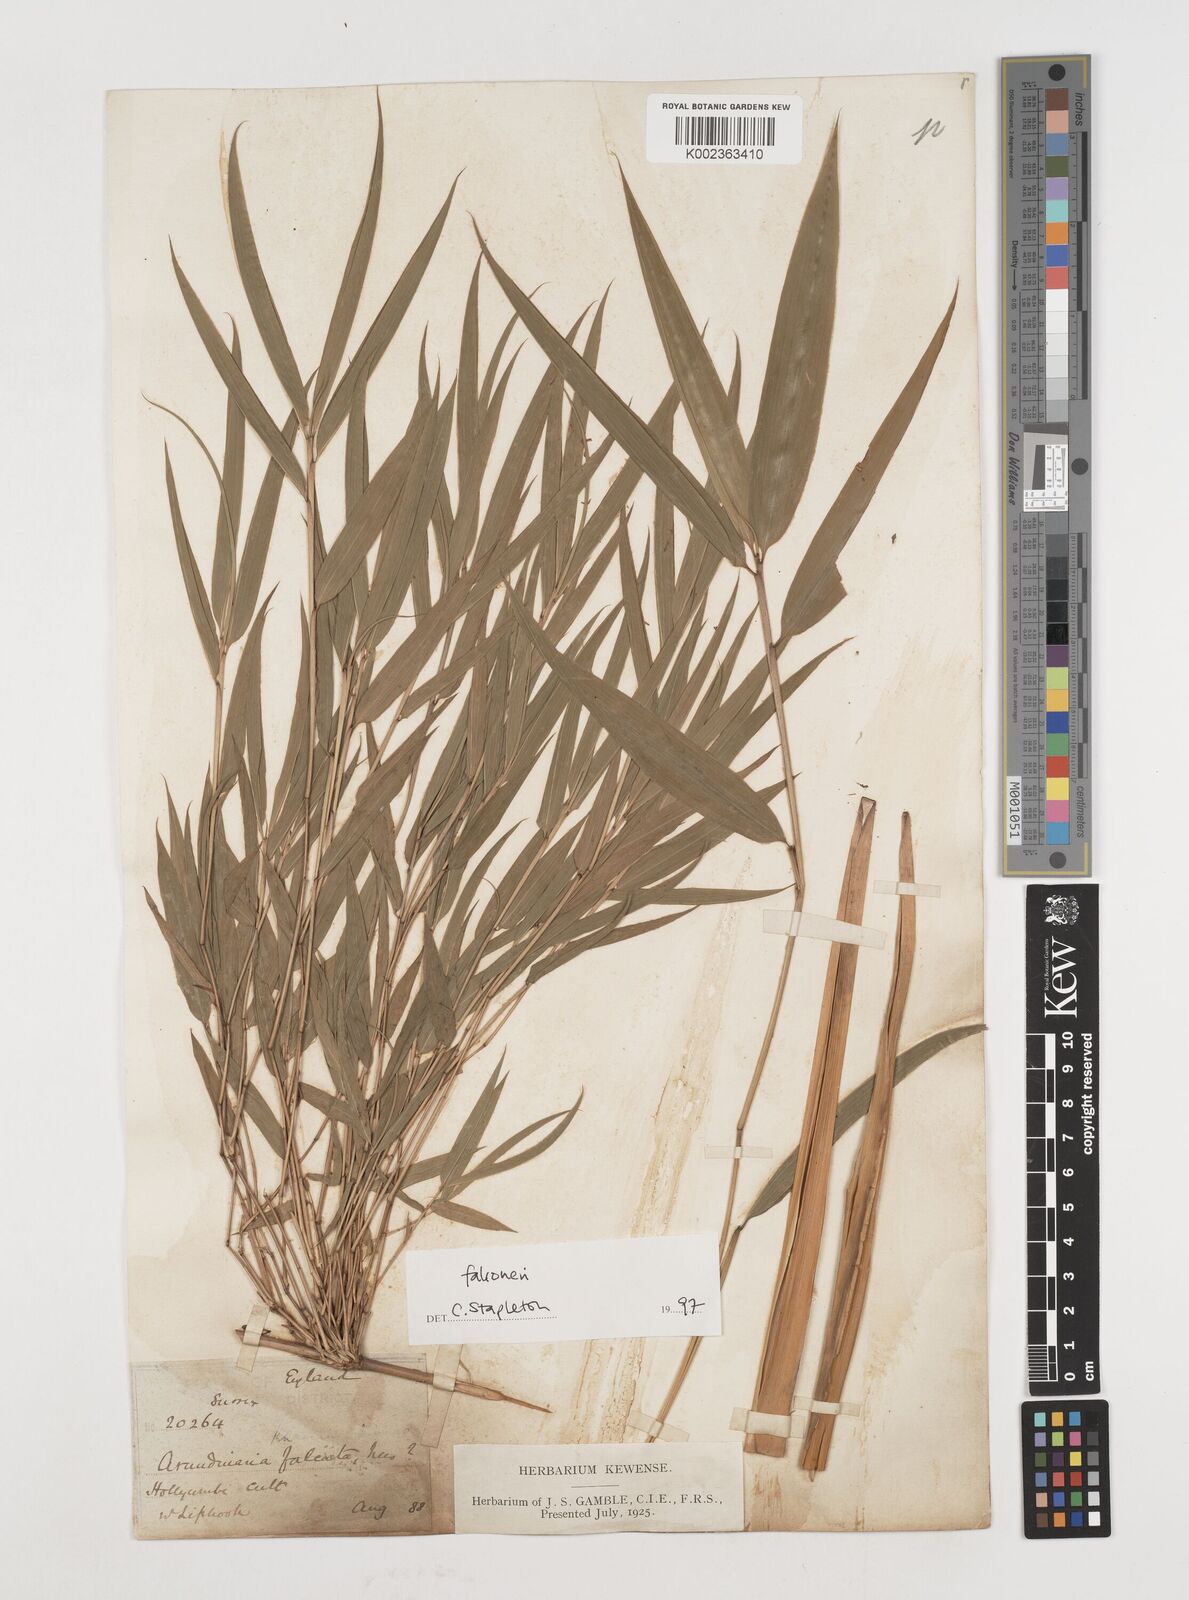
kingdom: Plantae
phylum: Tracheophyta
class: Liliopsida
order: Poales
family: Poaceae
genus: Himalayacalamus
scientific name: Himalayacalamus falconeri
